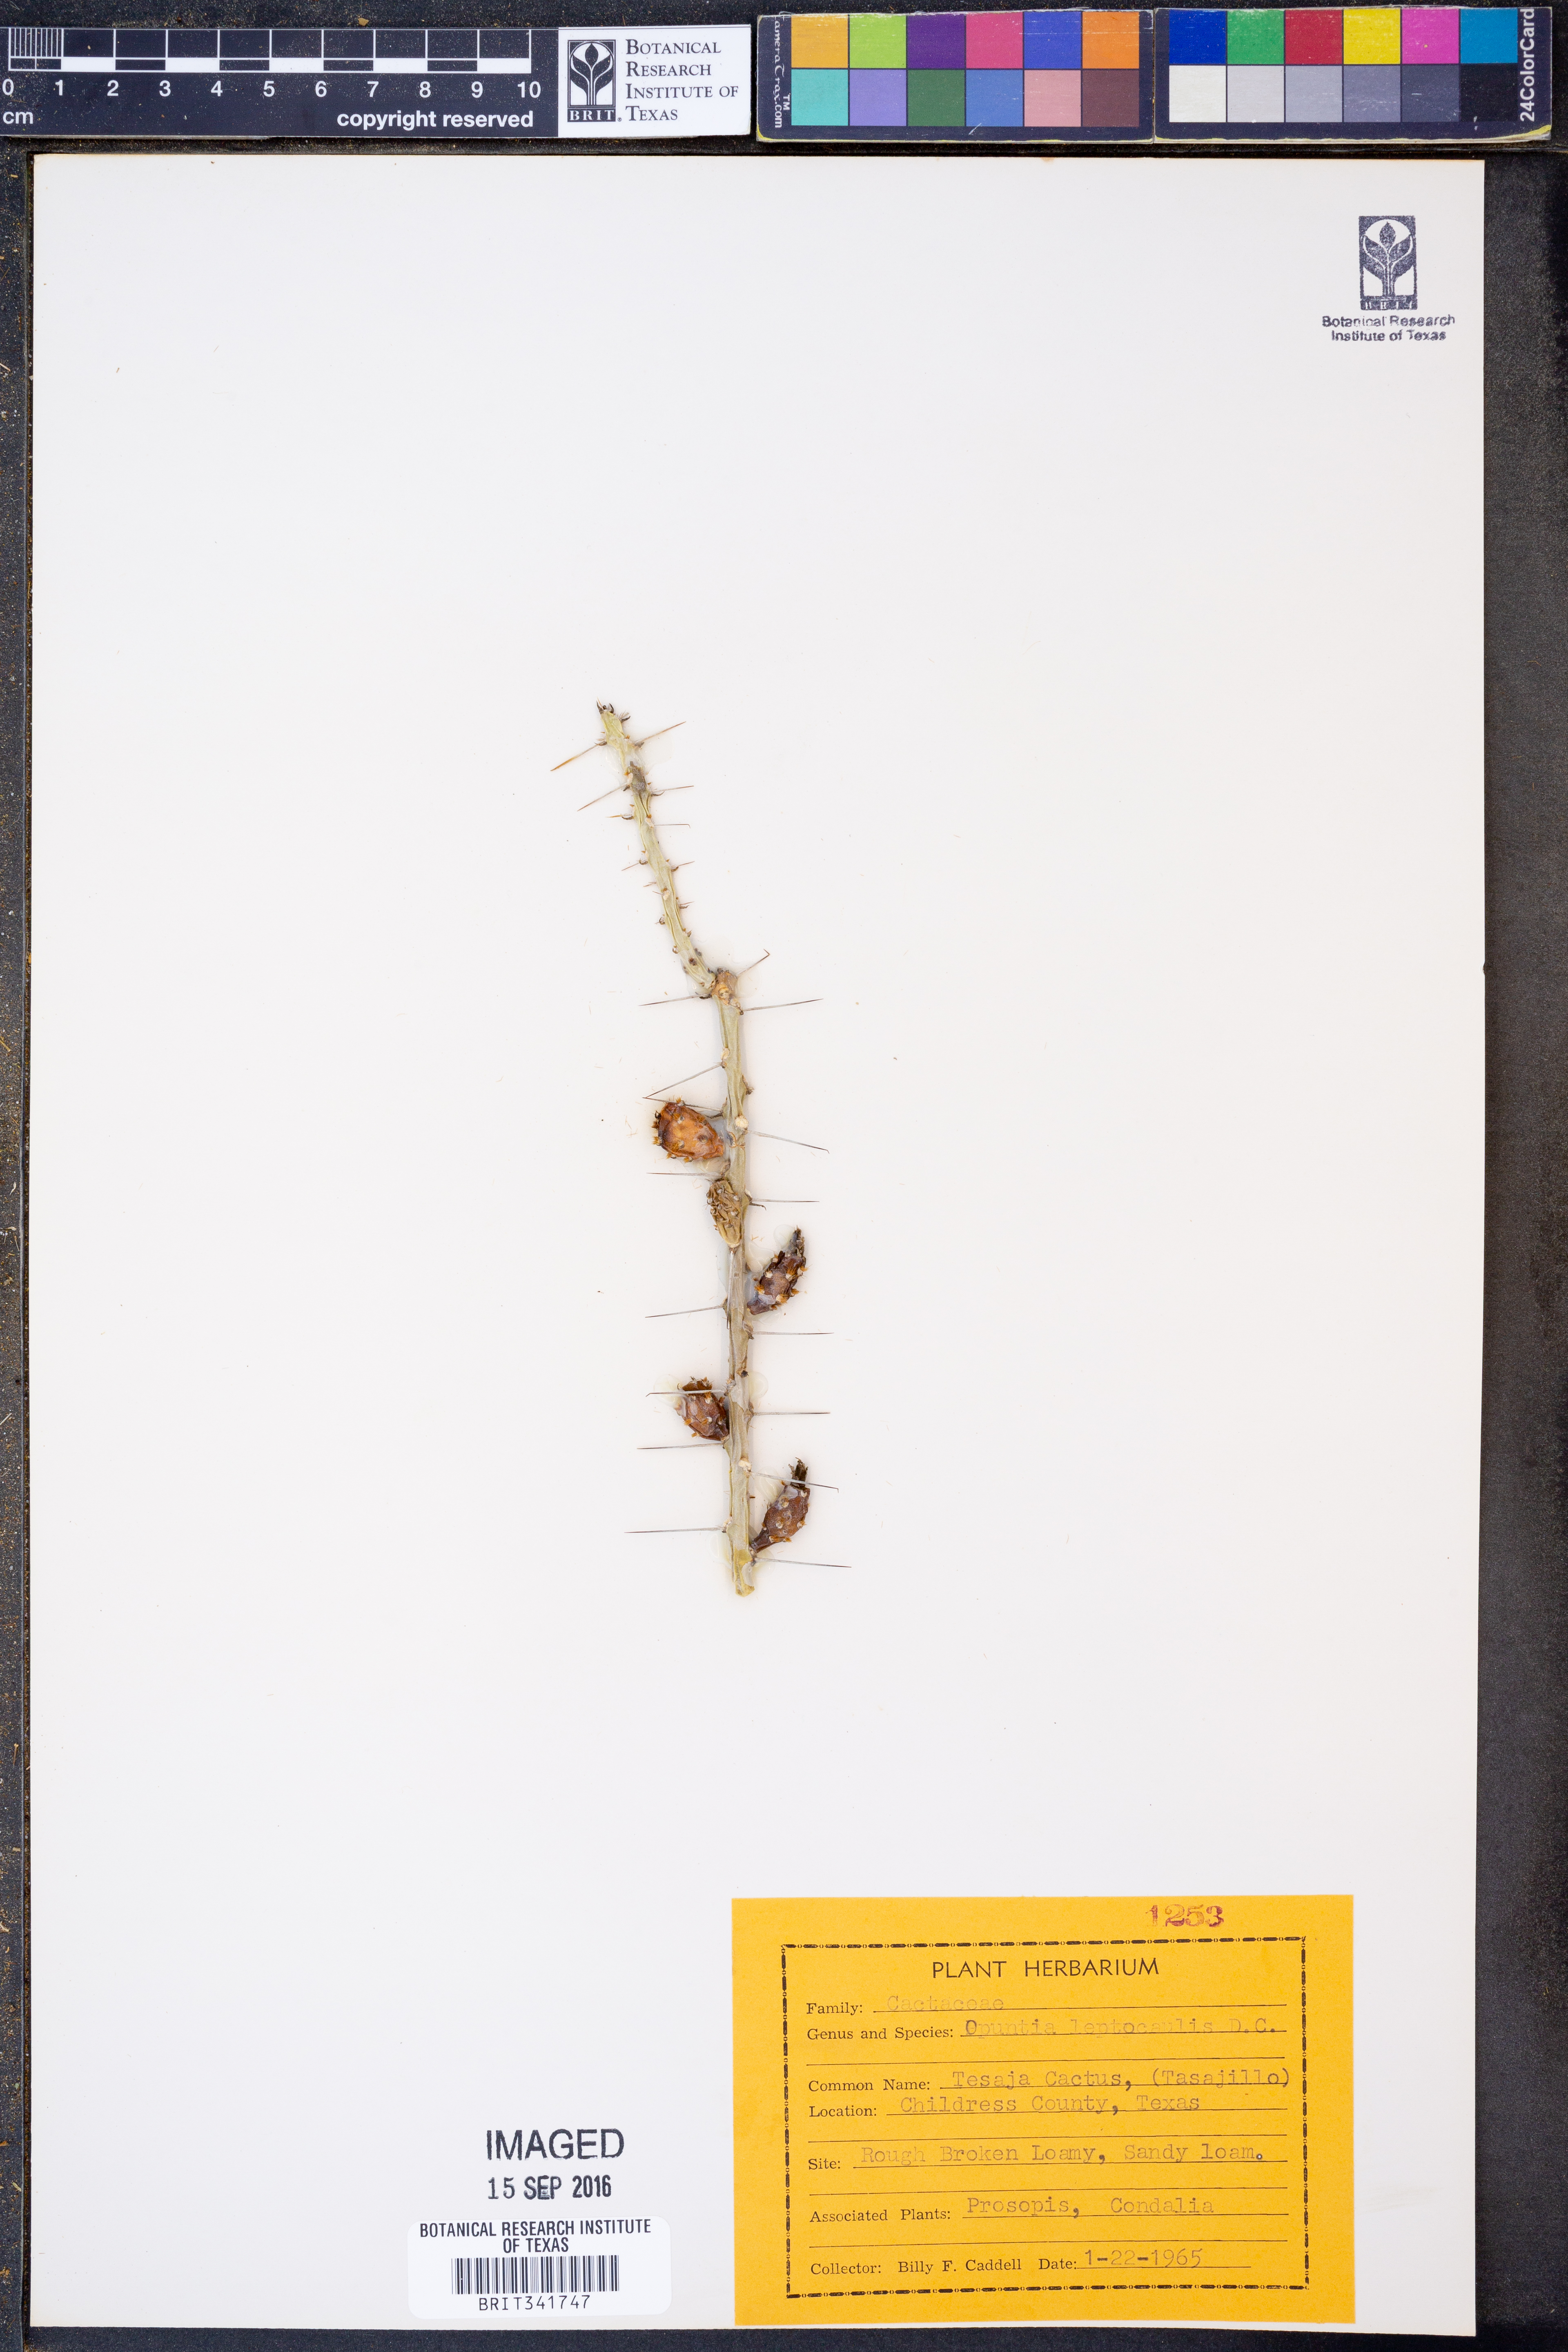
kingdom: Plantae
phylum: Tracheophyta
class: Magnoliopsida
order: Caryophyllales
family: Cactaceae
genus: Cylindropuntia
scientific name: Cylindropuntia leptocaulis
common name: Christmas cactus
